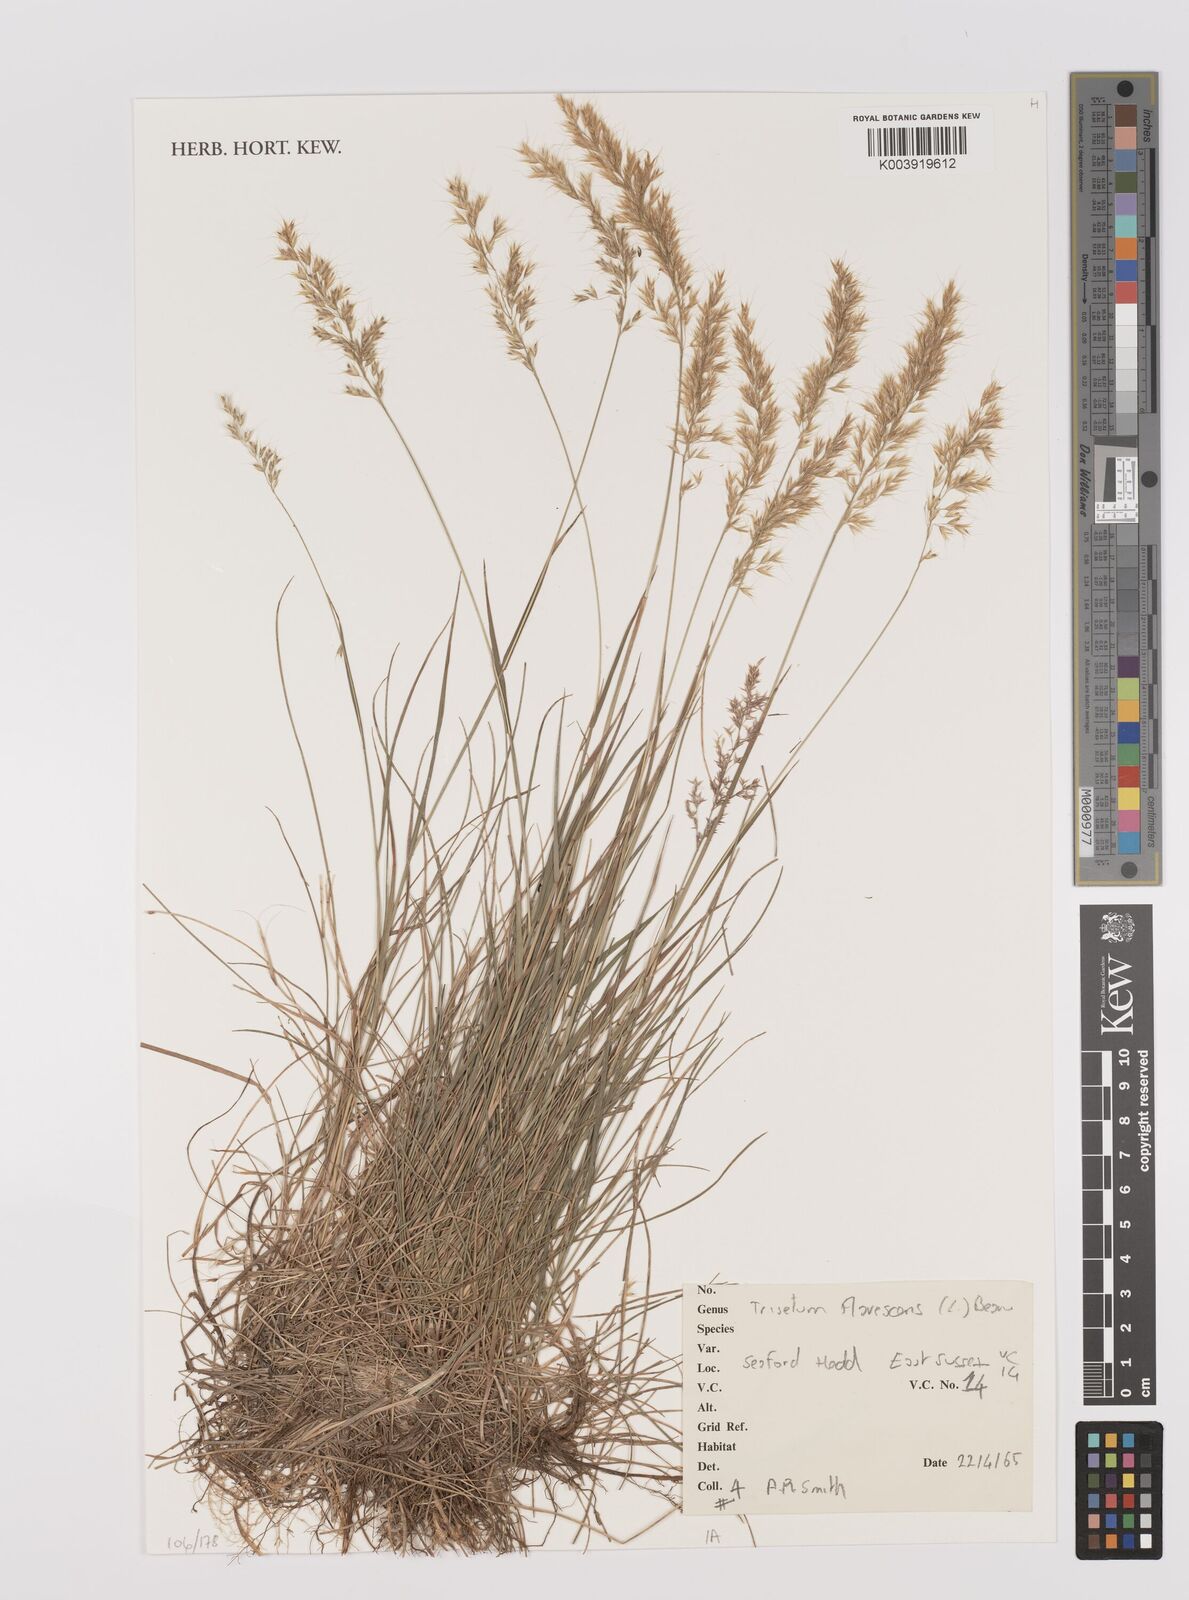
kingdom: Plantae
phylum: Tracheophyta
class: Liliopsida
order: Poales
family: Poaceae
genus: Trisetum
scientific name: Trisetum flavescens
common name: Yellow oat-grass
